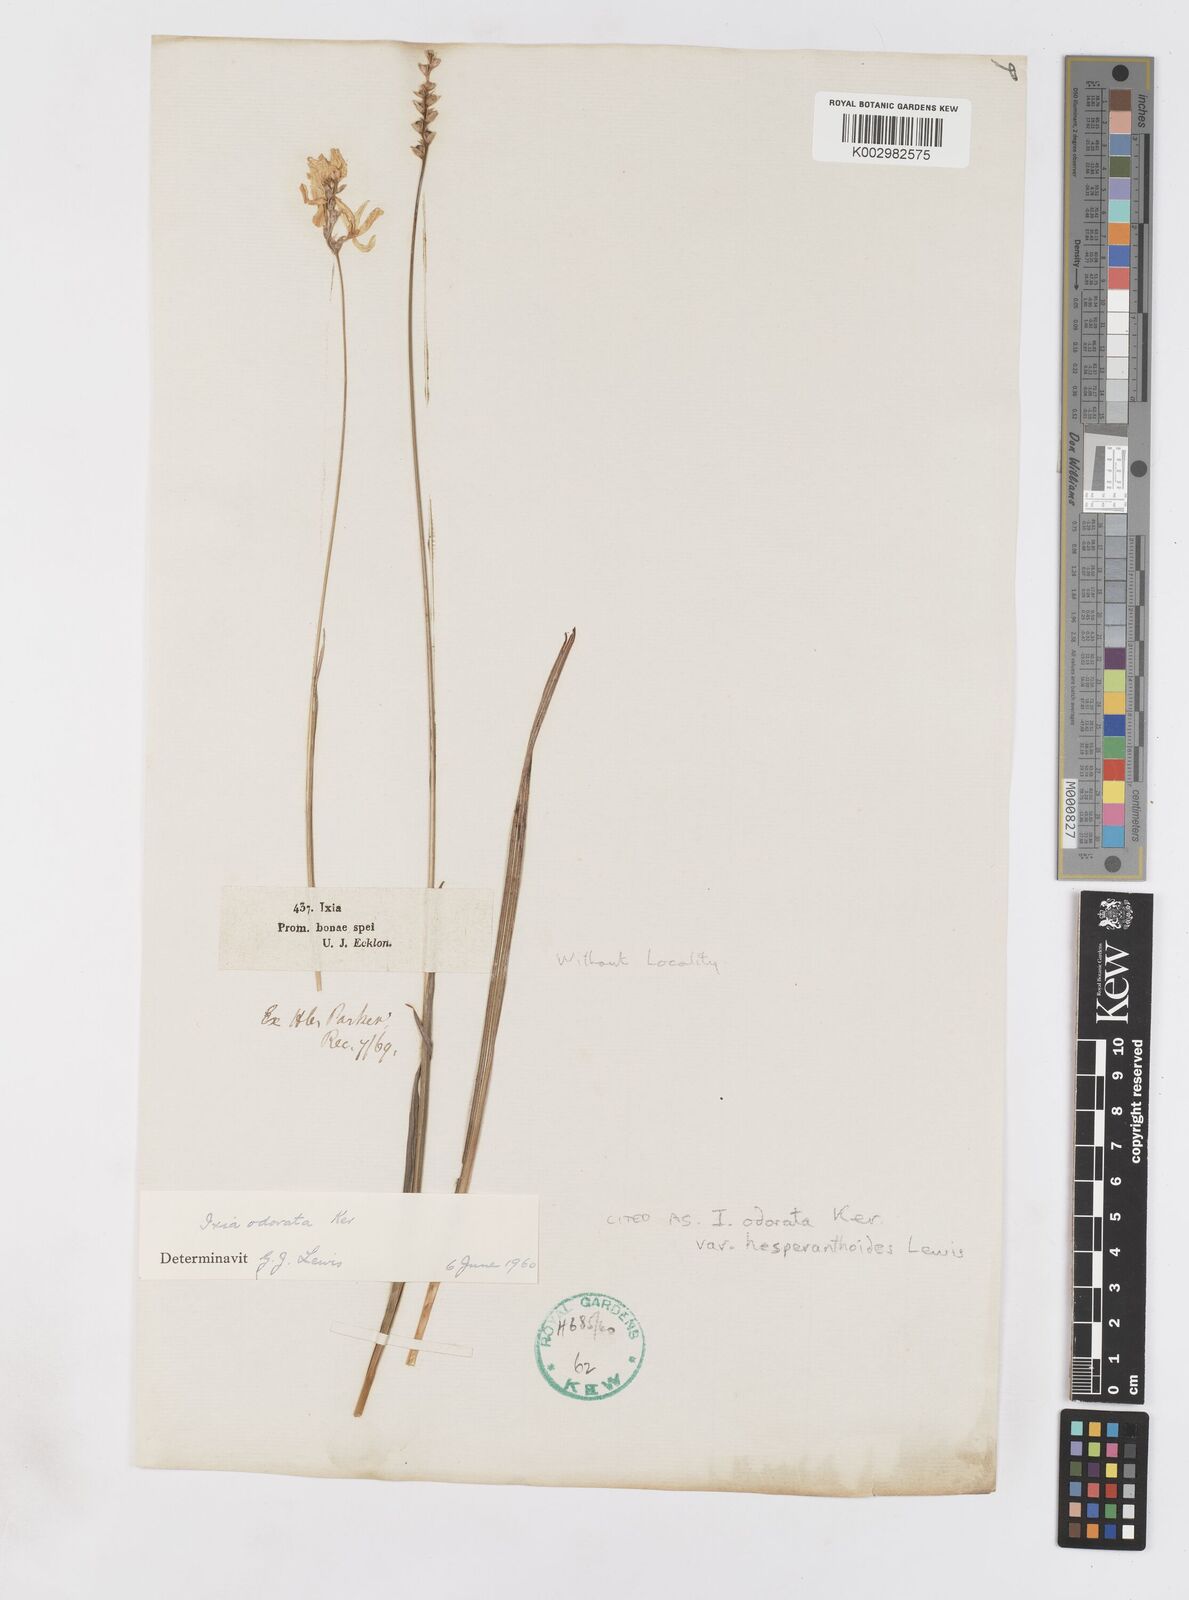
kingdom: Plantae
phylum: Tracheophyta
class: Liliopsida
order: Asparagales
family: Iridaceae
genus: Ixia
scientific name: Ixia odorata
